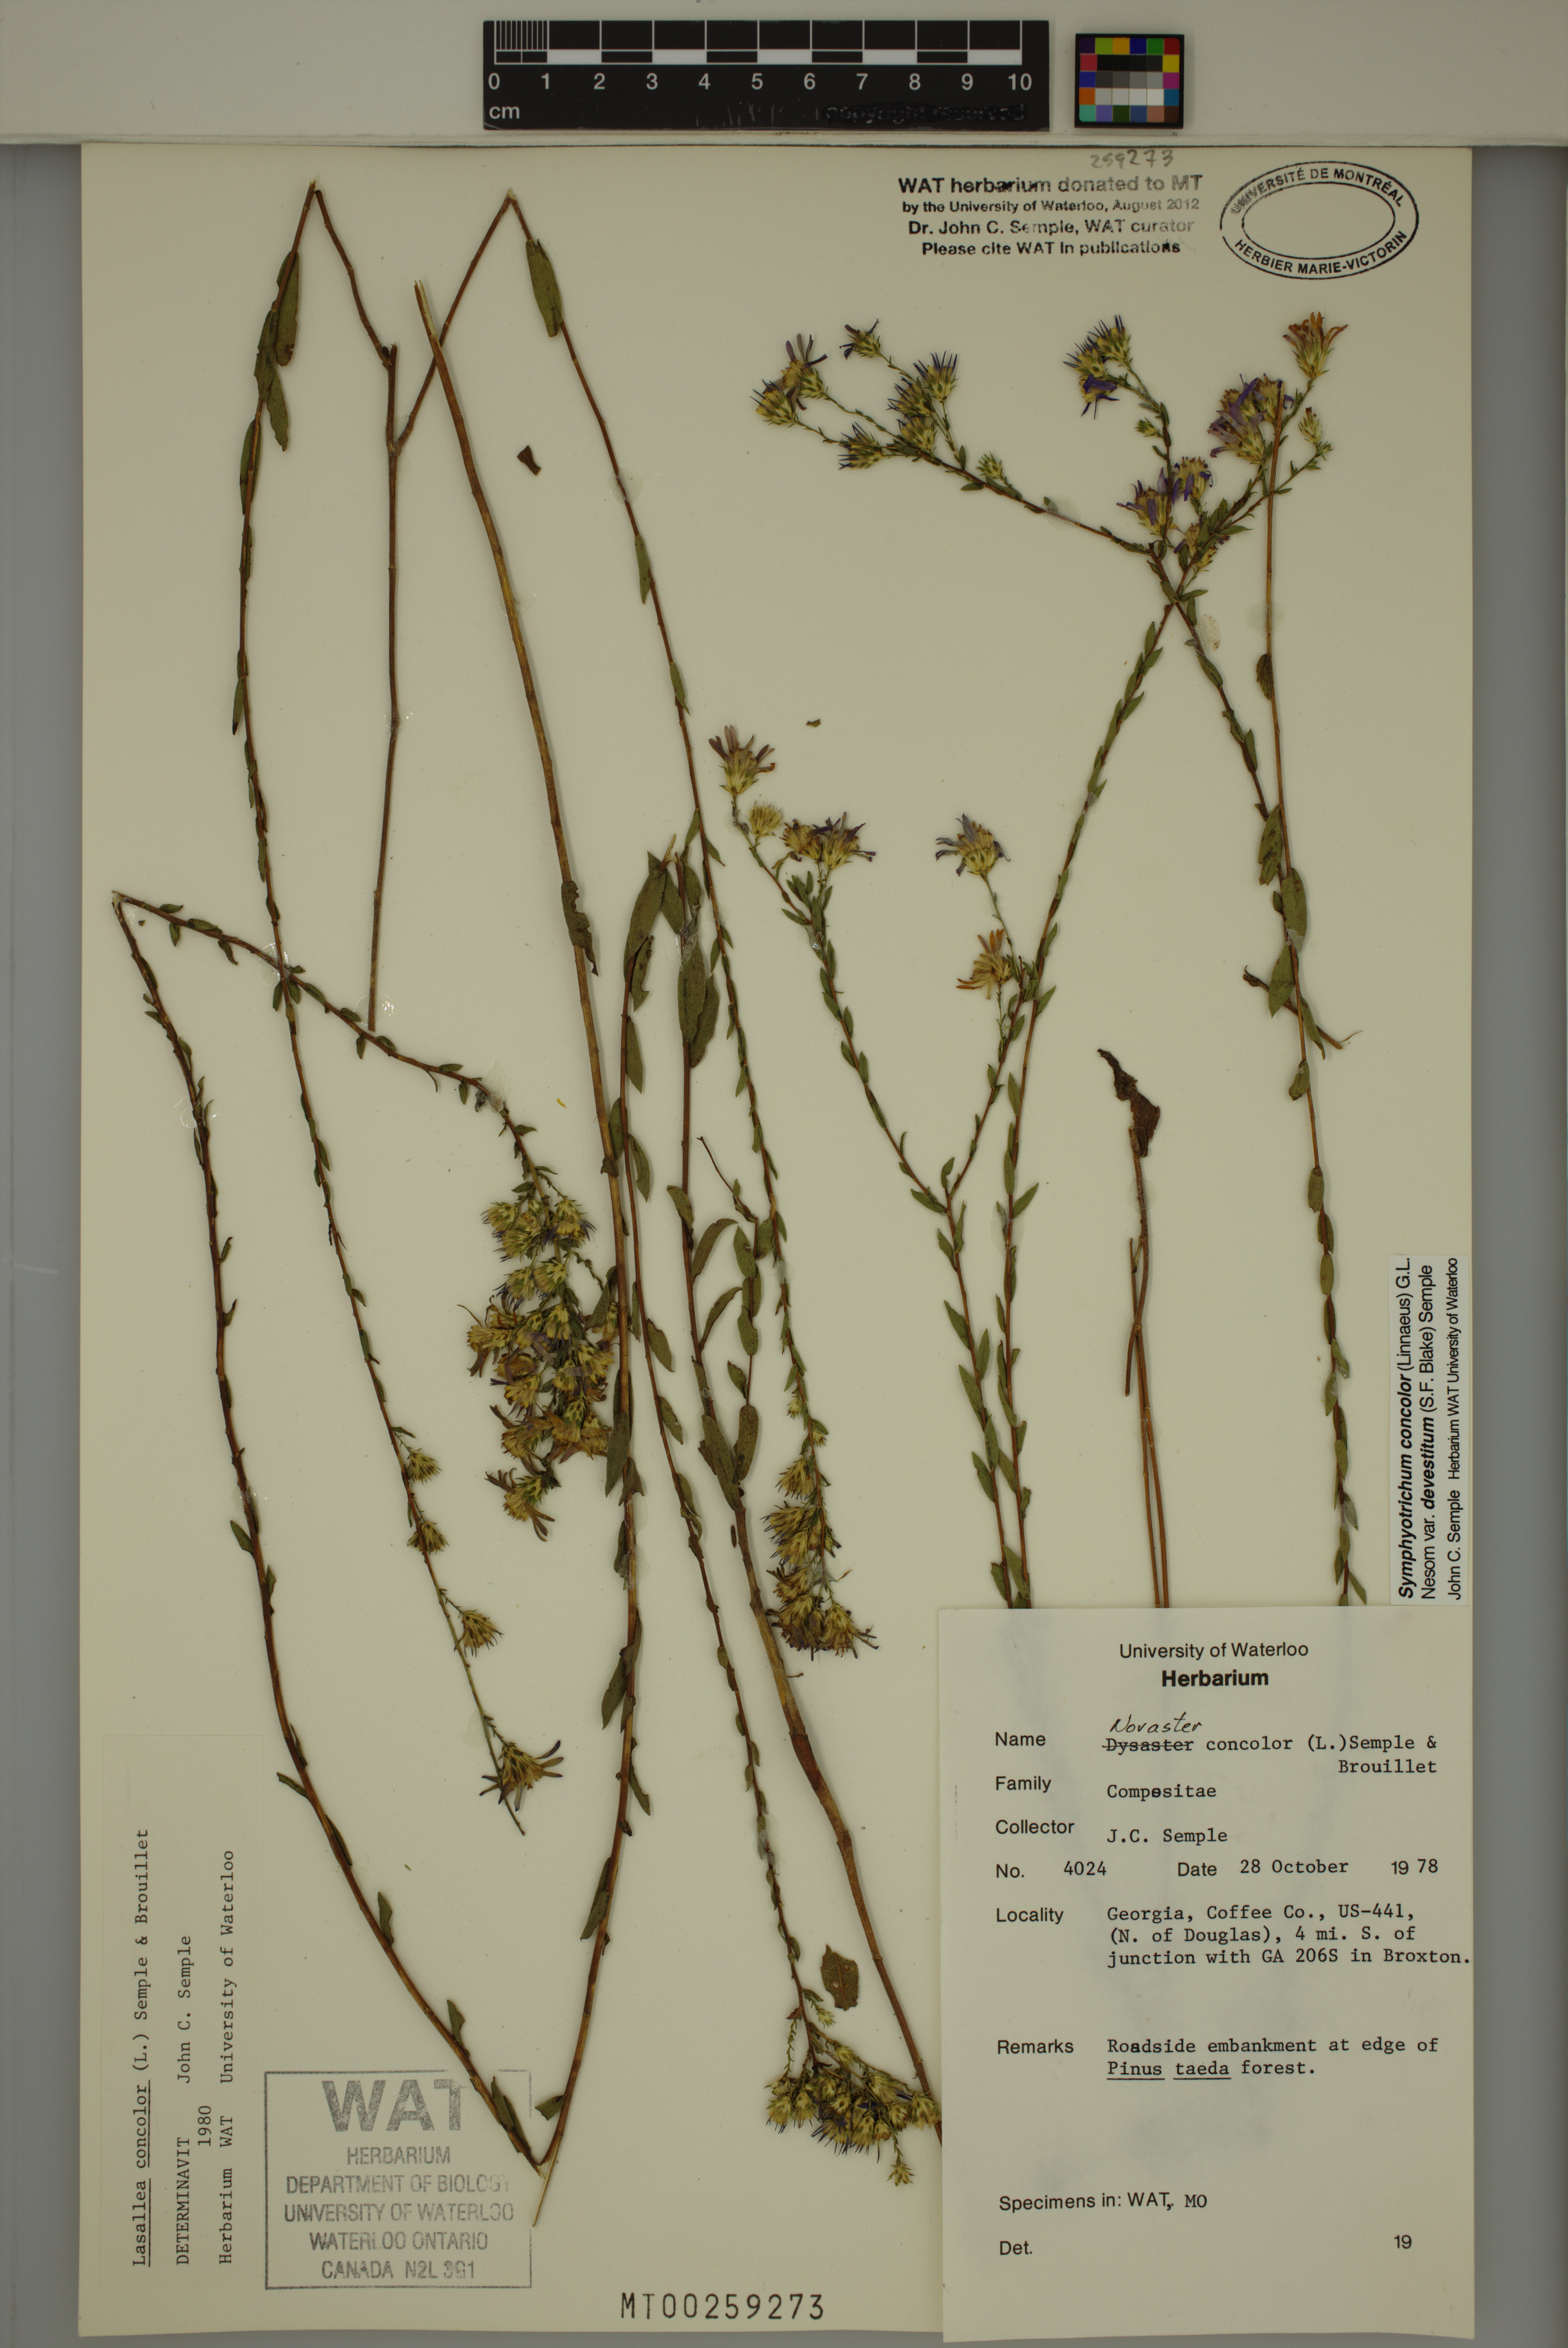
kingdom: Plantae
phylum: Tracheophyta
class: Magnoliopsida
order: Asterales
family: Asteraceae
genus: Symphyotrichum
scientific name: Symphyotrichum concolor
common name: Eastern silver aster
